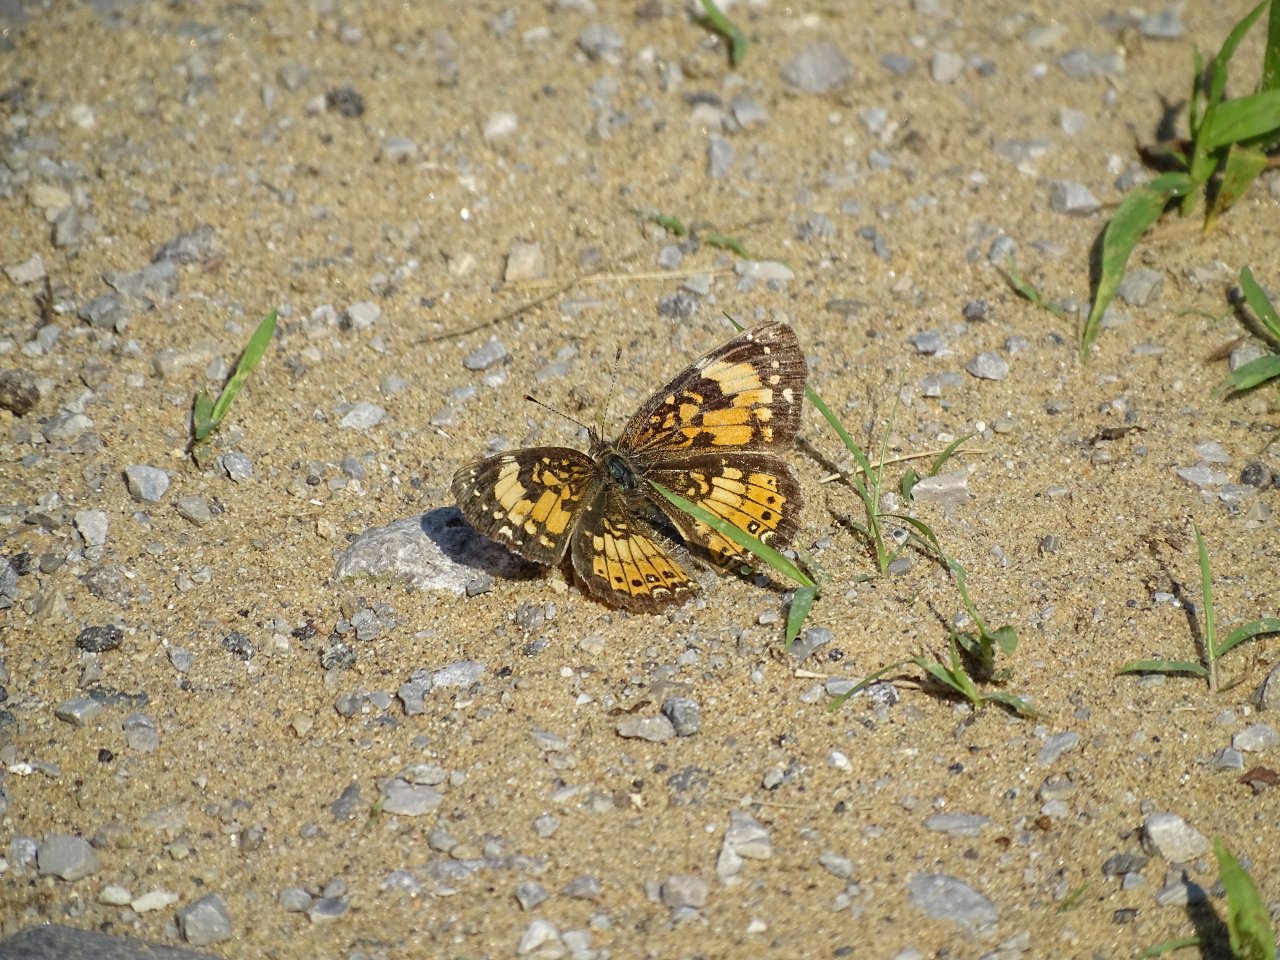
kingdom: Animalia
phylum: Arthropoda
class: Insecta
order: Lepidoptera
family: Nymphalidae
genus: Chlosyne
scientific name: Chlosyne nycteis
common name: Silvery Checkerspot
